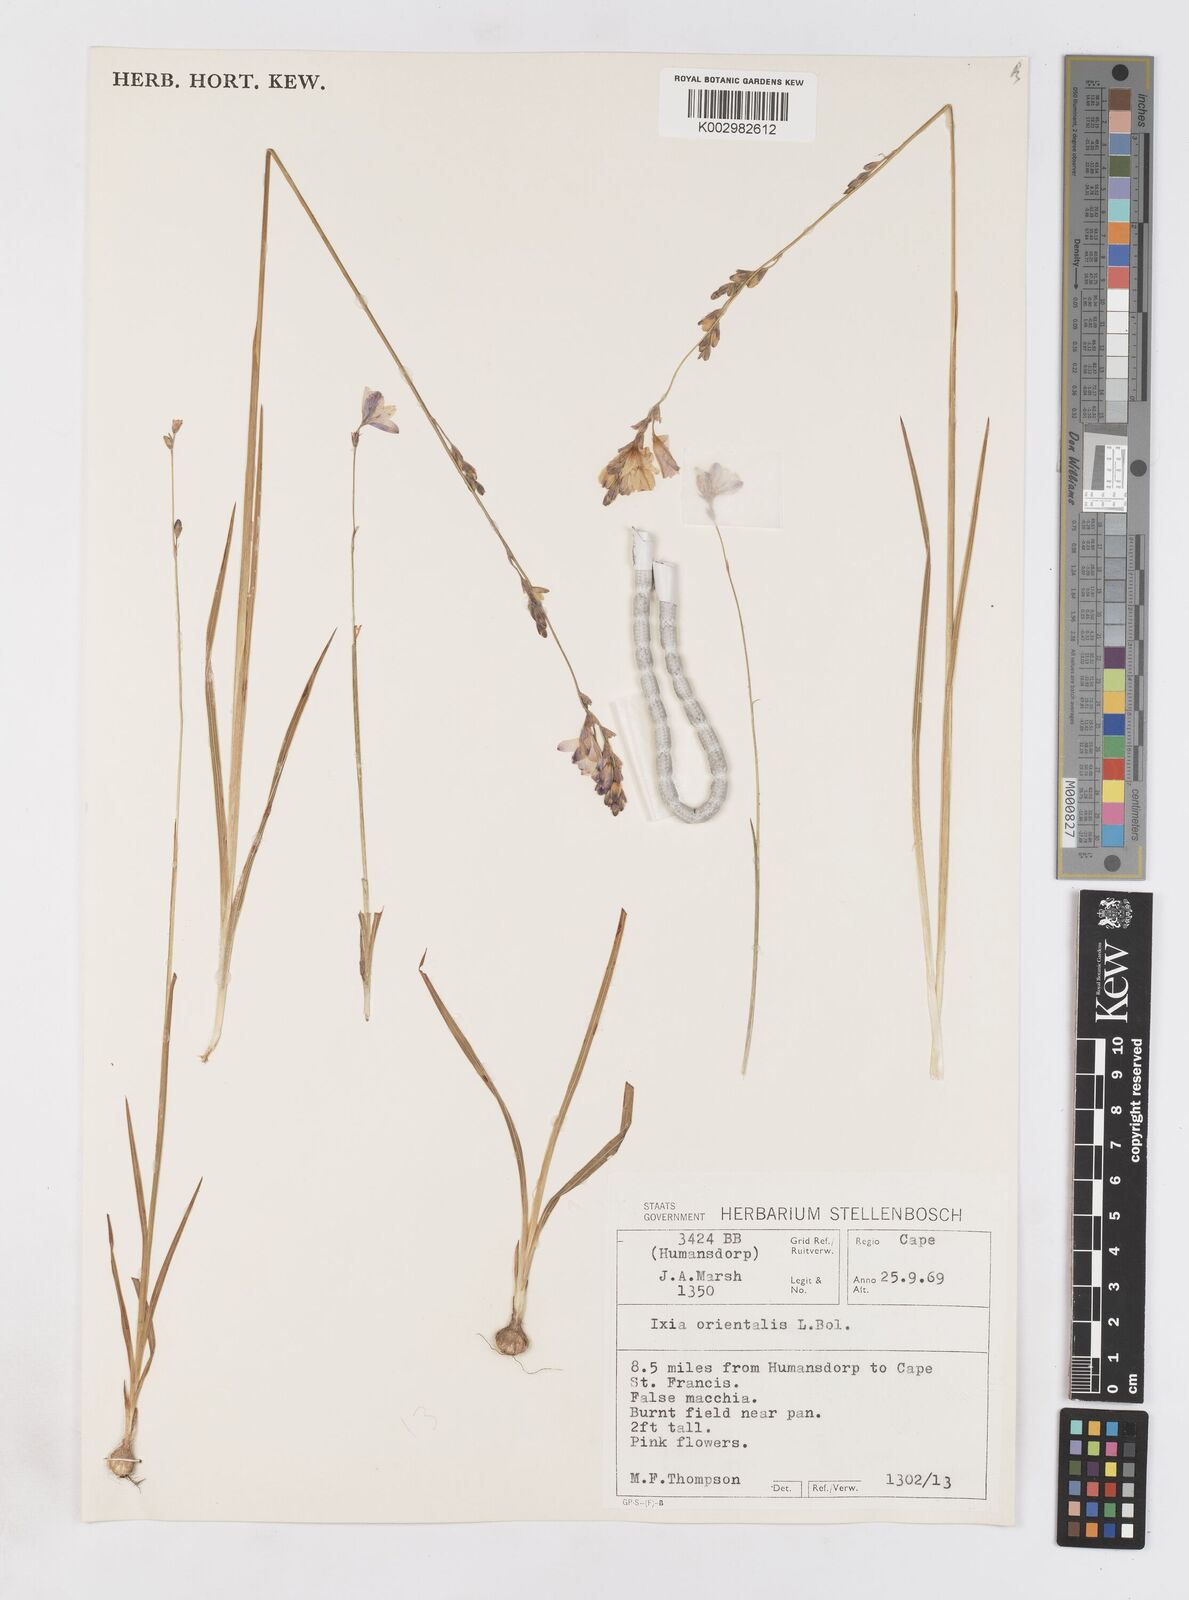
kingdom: Plantae
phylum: Tracheophyta
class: Liliopsida
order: Asparagales
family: Iridaceae
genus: Ixia
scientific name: Ixia orientalis
